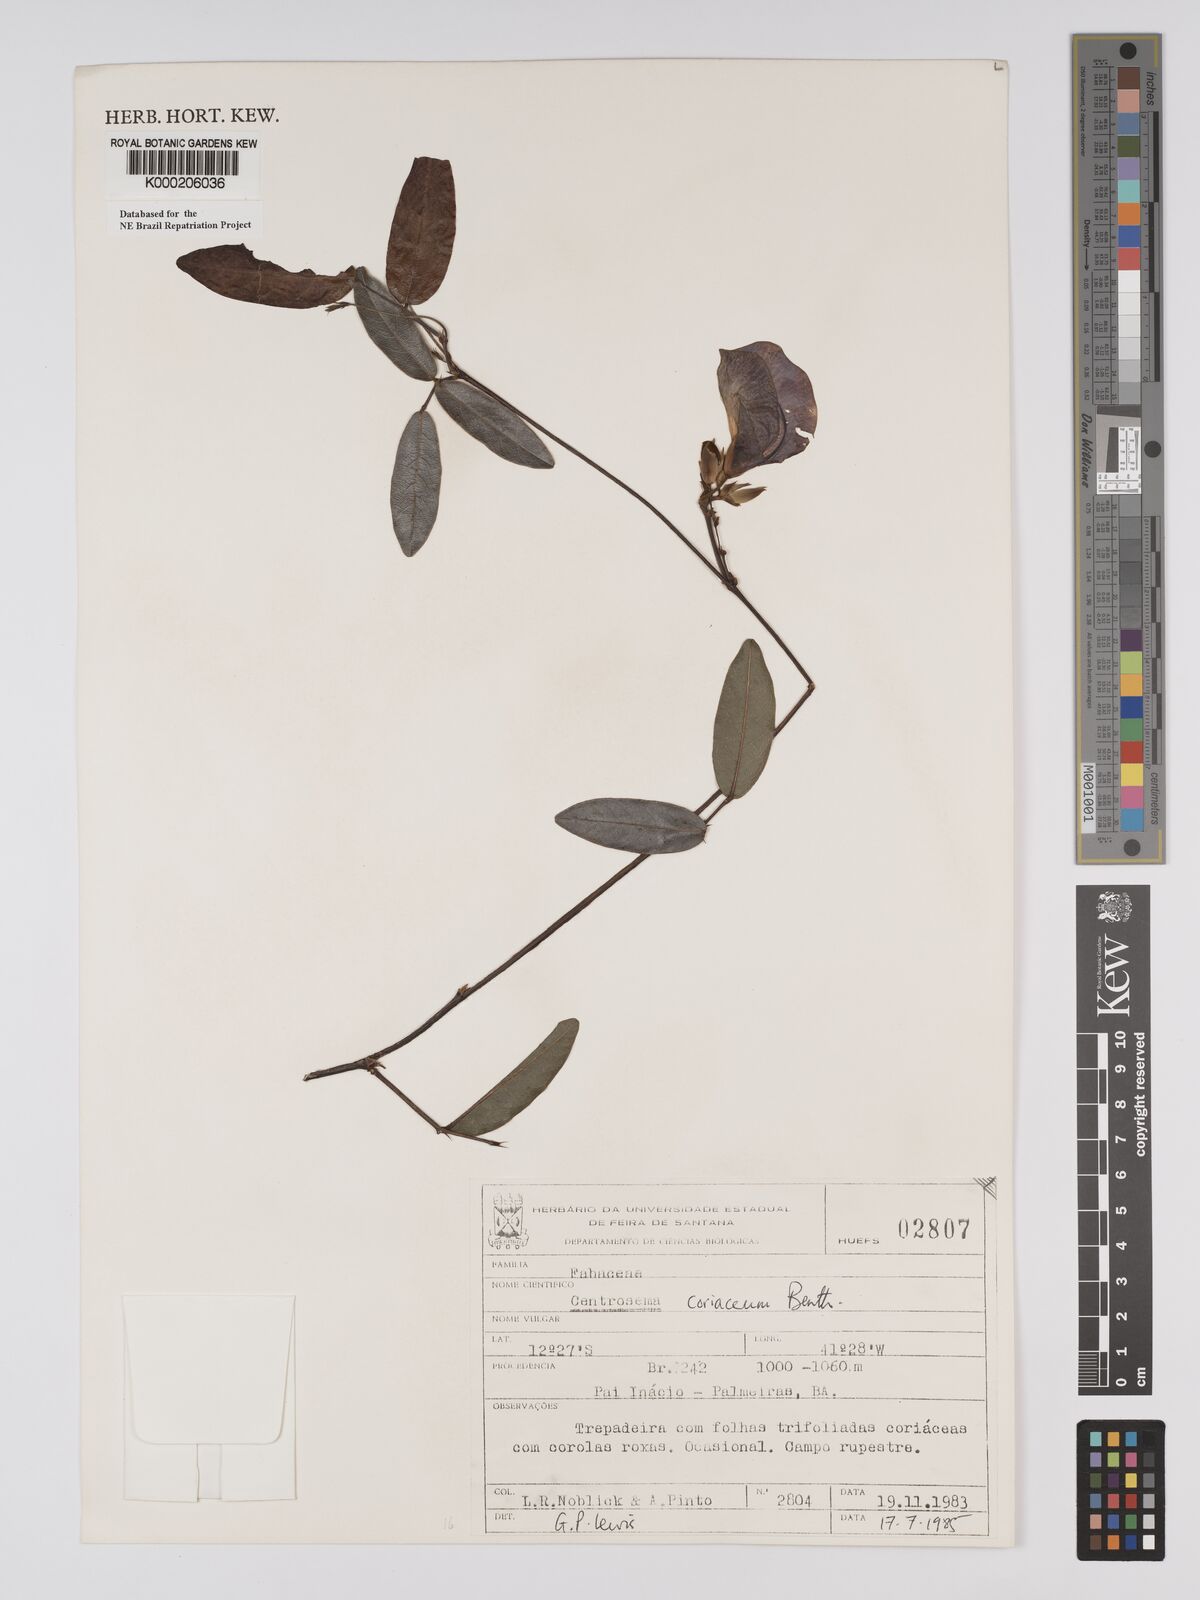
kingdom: Plantae
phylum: Tracheophyta
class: Magnoliopsida
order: Fabales
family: Fabaceae
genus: Centrosema
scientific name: Centrosema coriaceum
